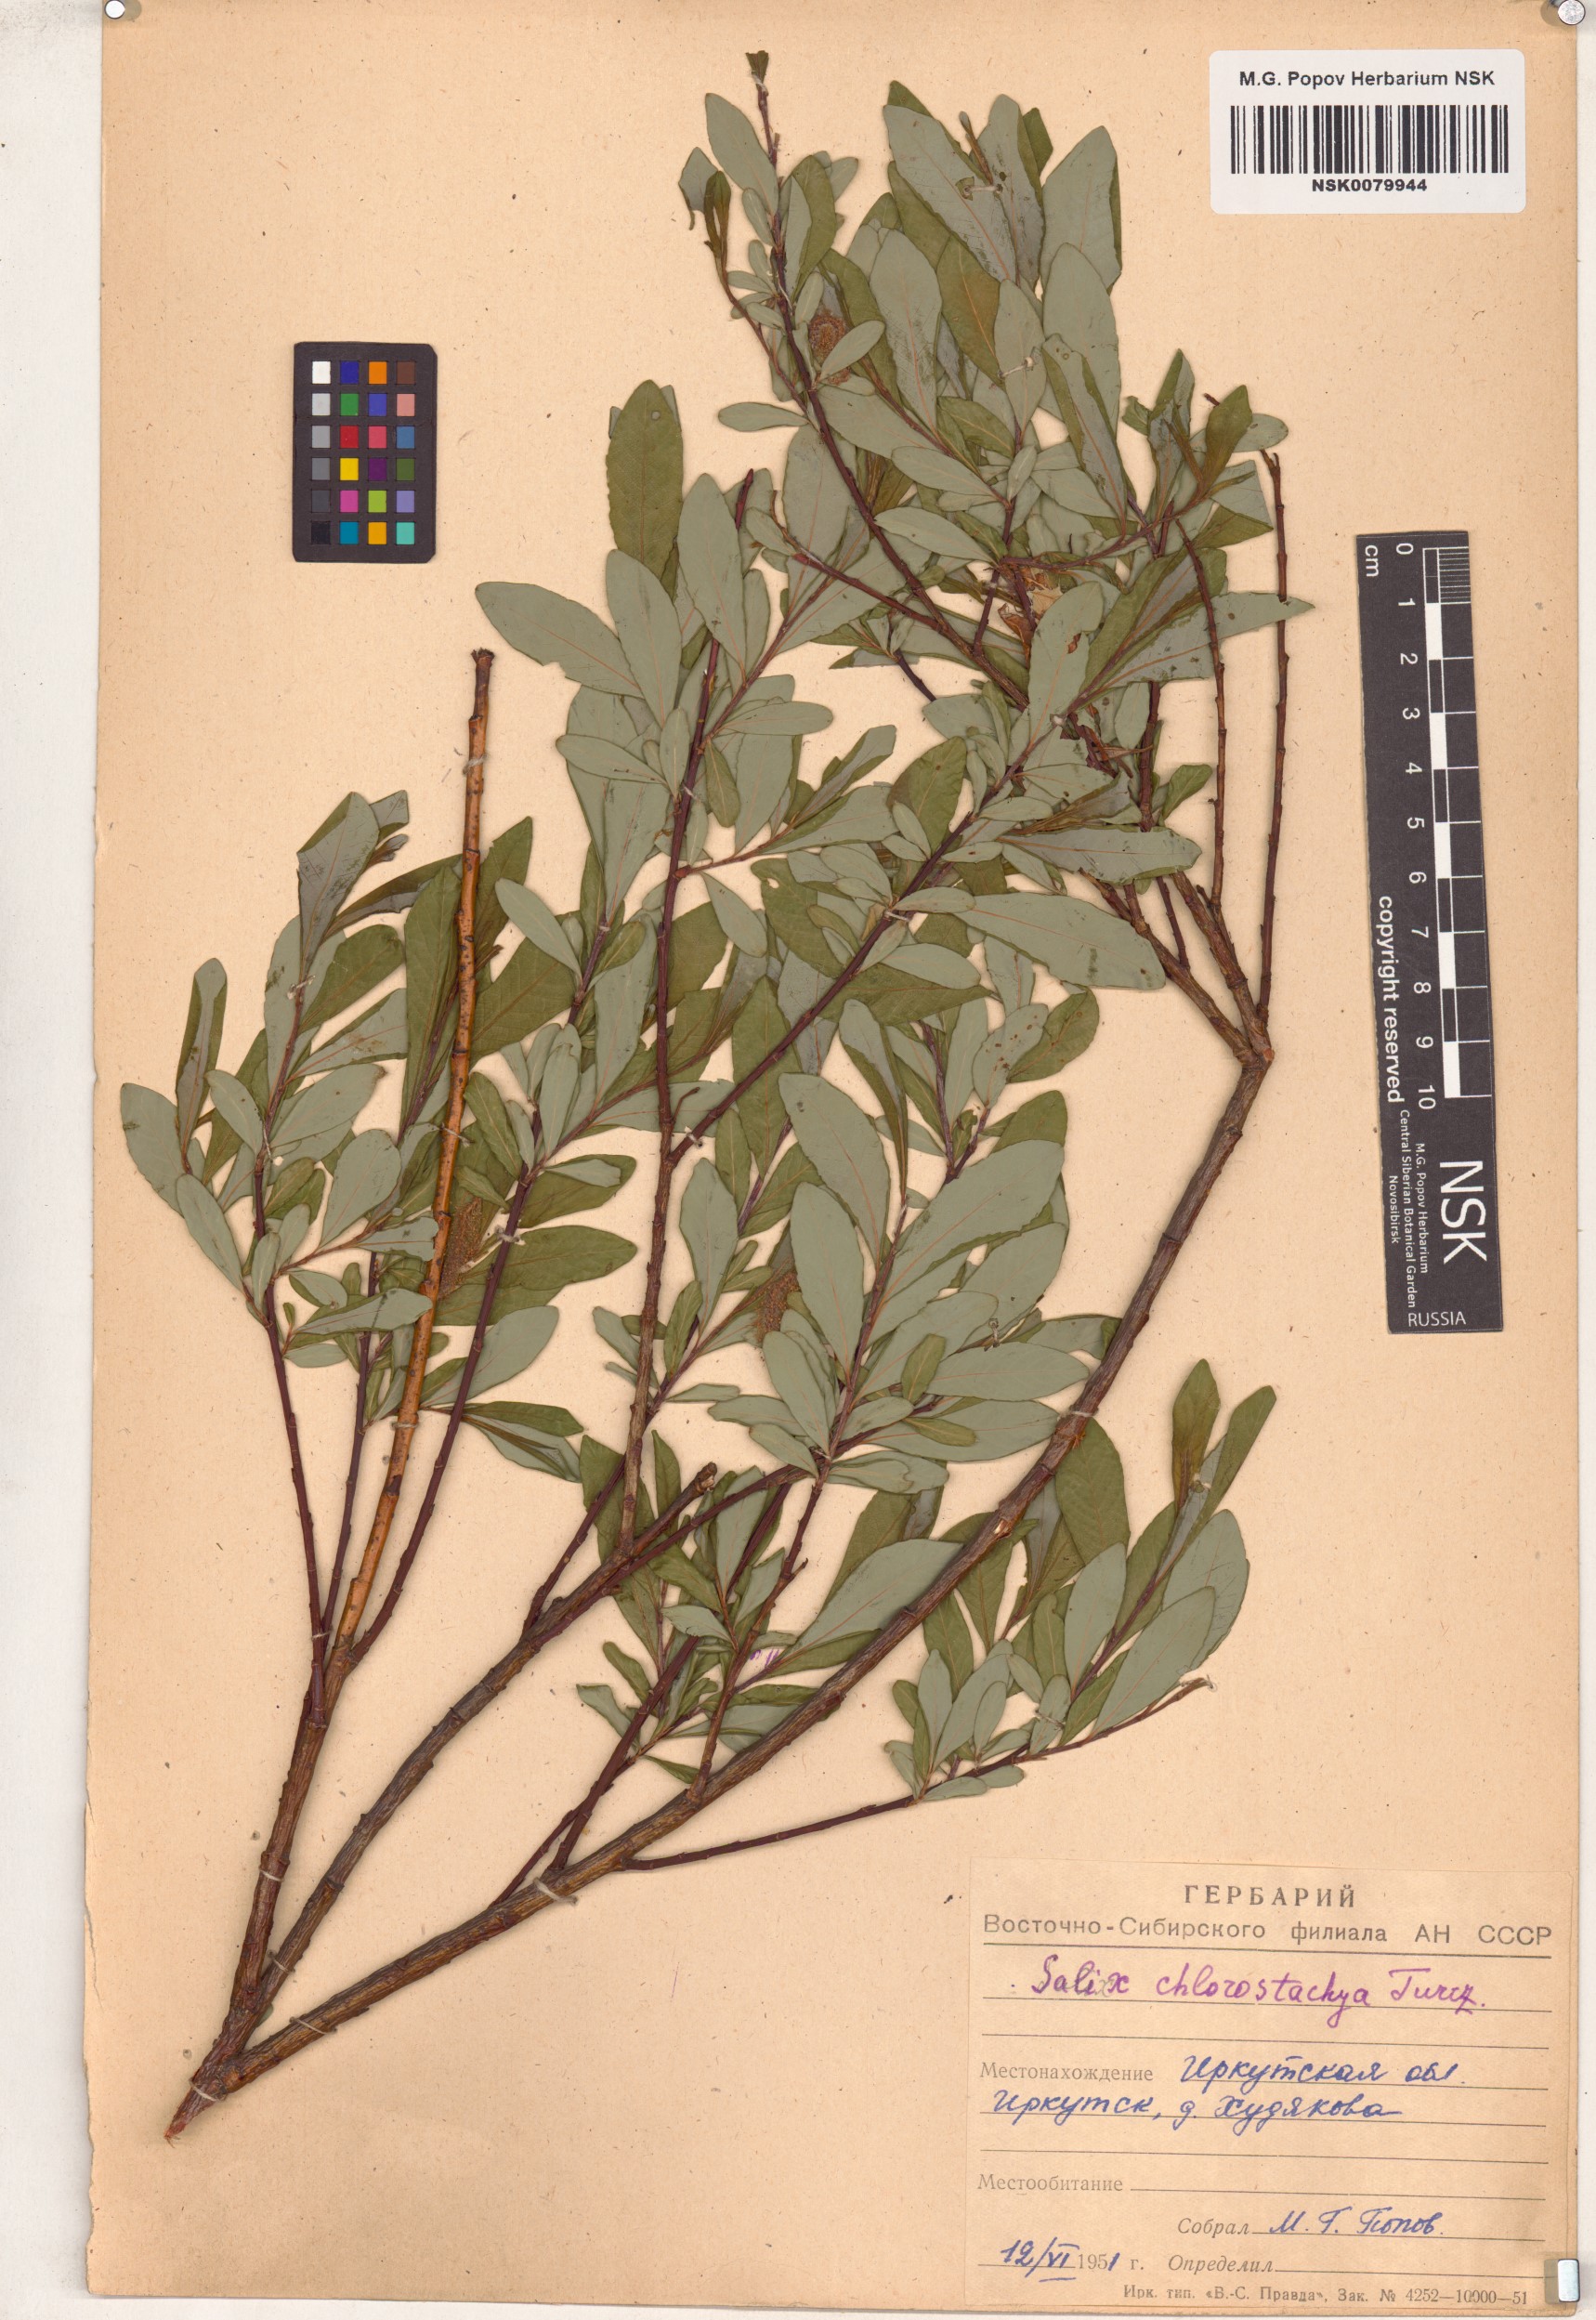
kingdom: Plantae
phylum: Tracheophyta
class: Magnoliopsida
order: Malpighiales
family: Salicaceae
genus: Salix
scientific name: Salix rhamnifolia
